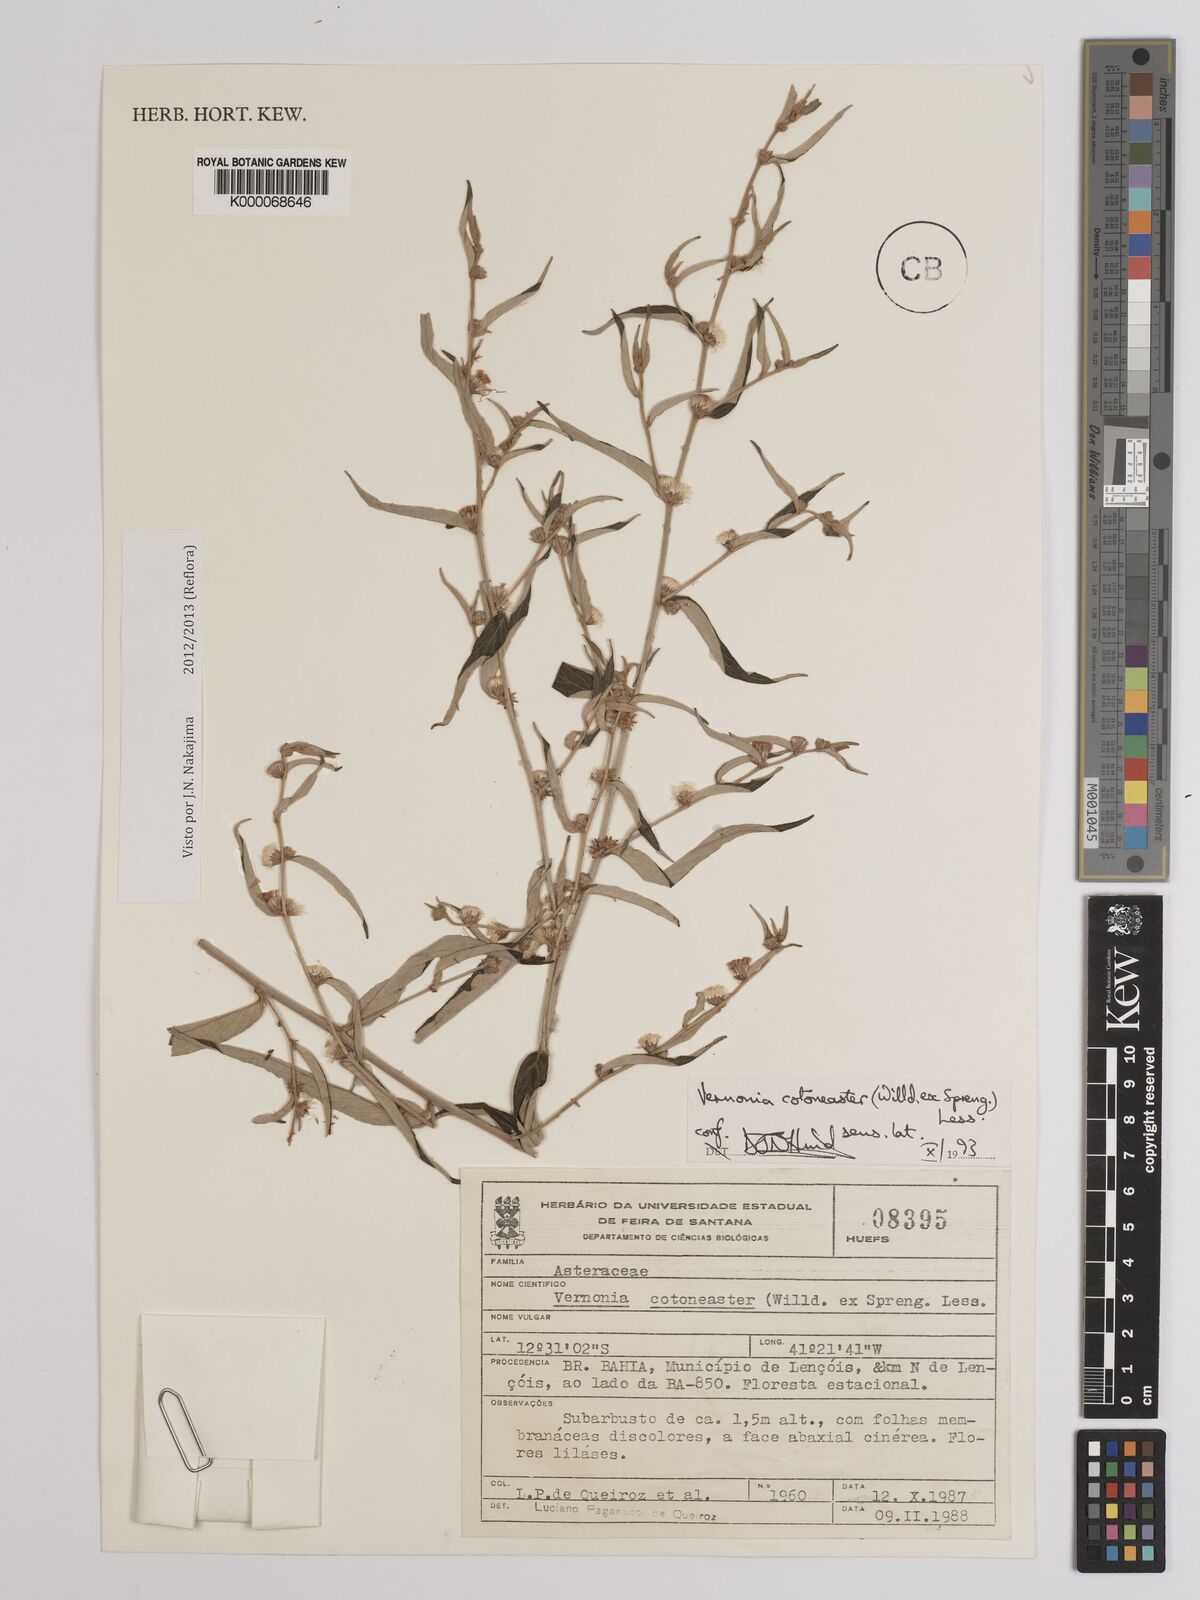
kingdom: Plantae
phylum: Tracheophyta
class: Magnoliopsida
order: Asterales
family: Asteraceae
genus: Lepidaploa
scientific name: Lepidaploa cotoneaster
